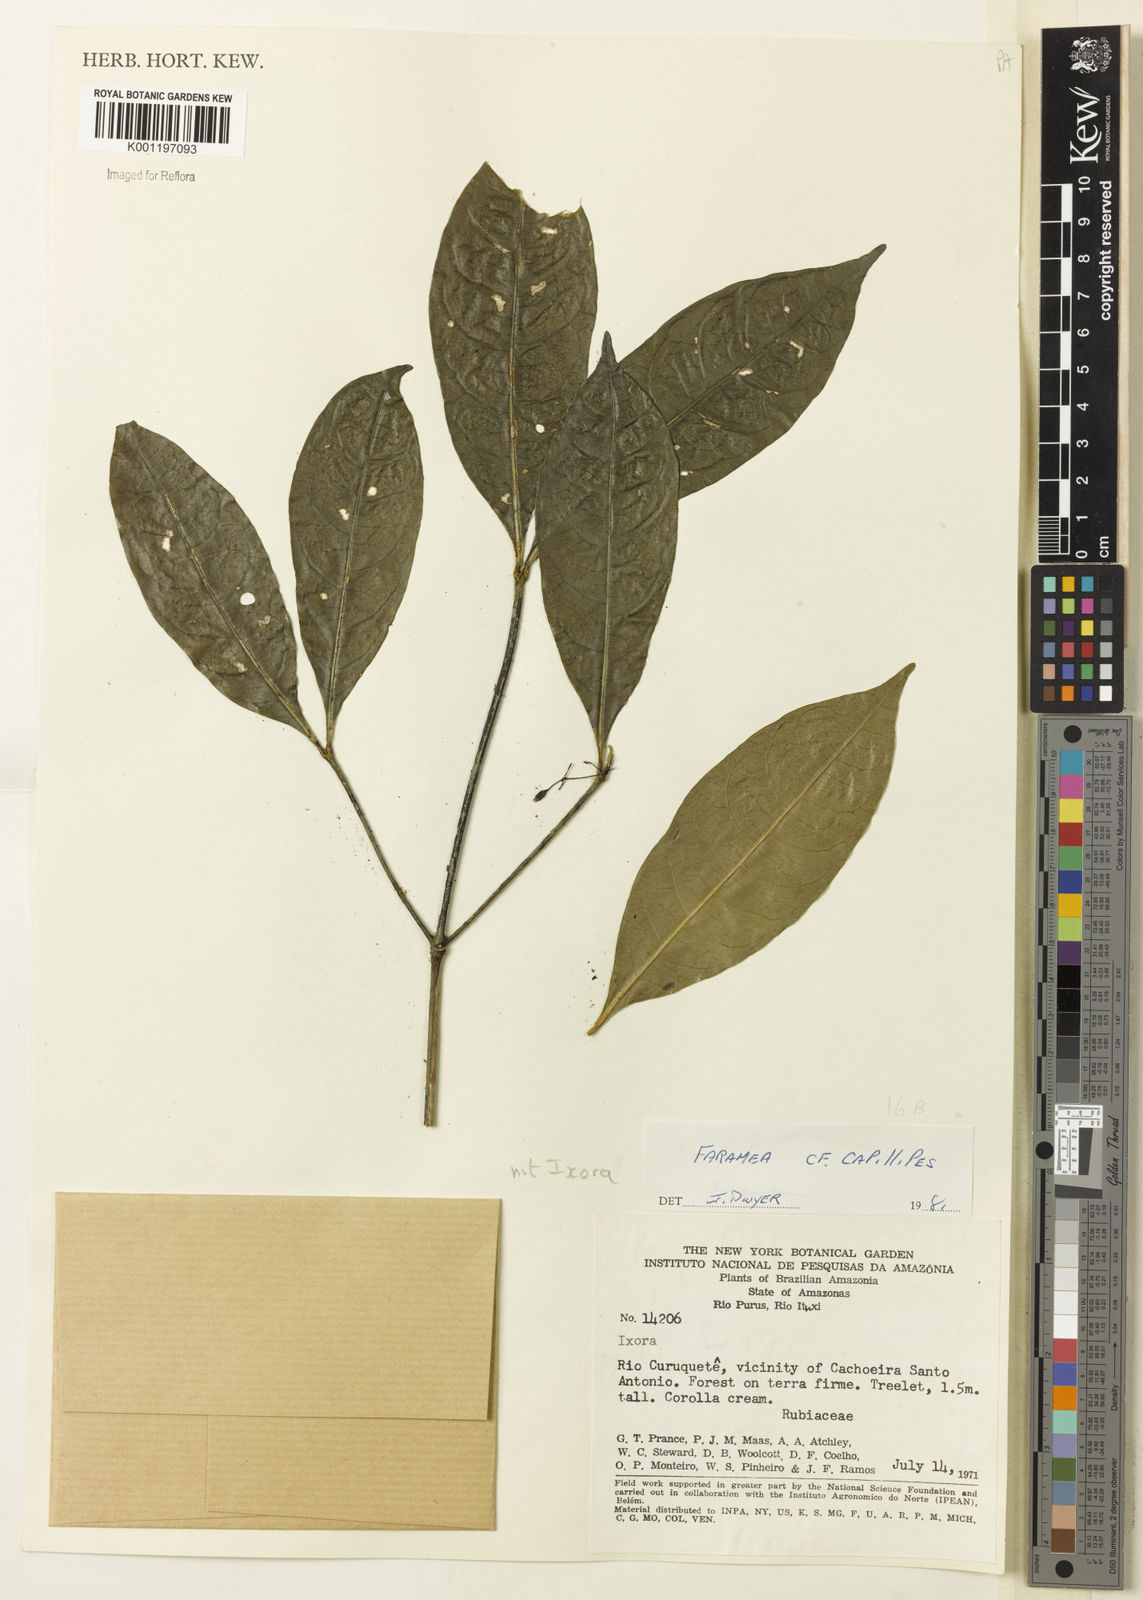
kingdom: Plantae
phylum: Tracheophyta
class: Magnoliopsida
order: Gentianales
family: Rubiaceae
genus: Faramea
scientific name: Faramea
